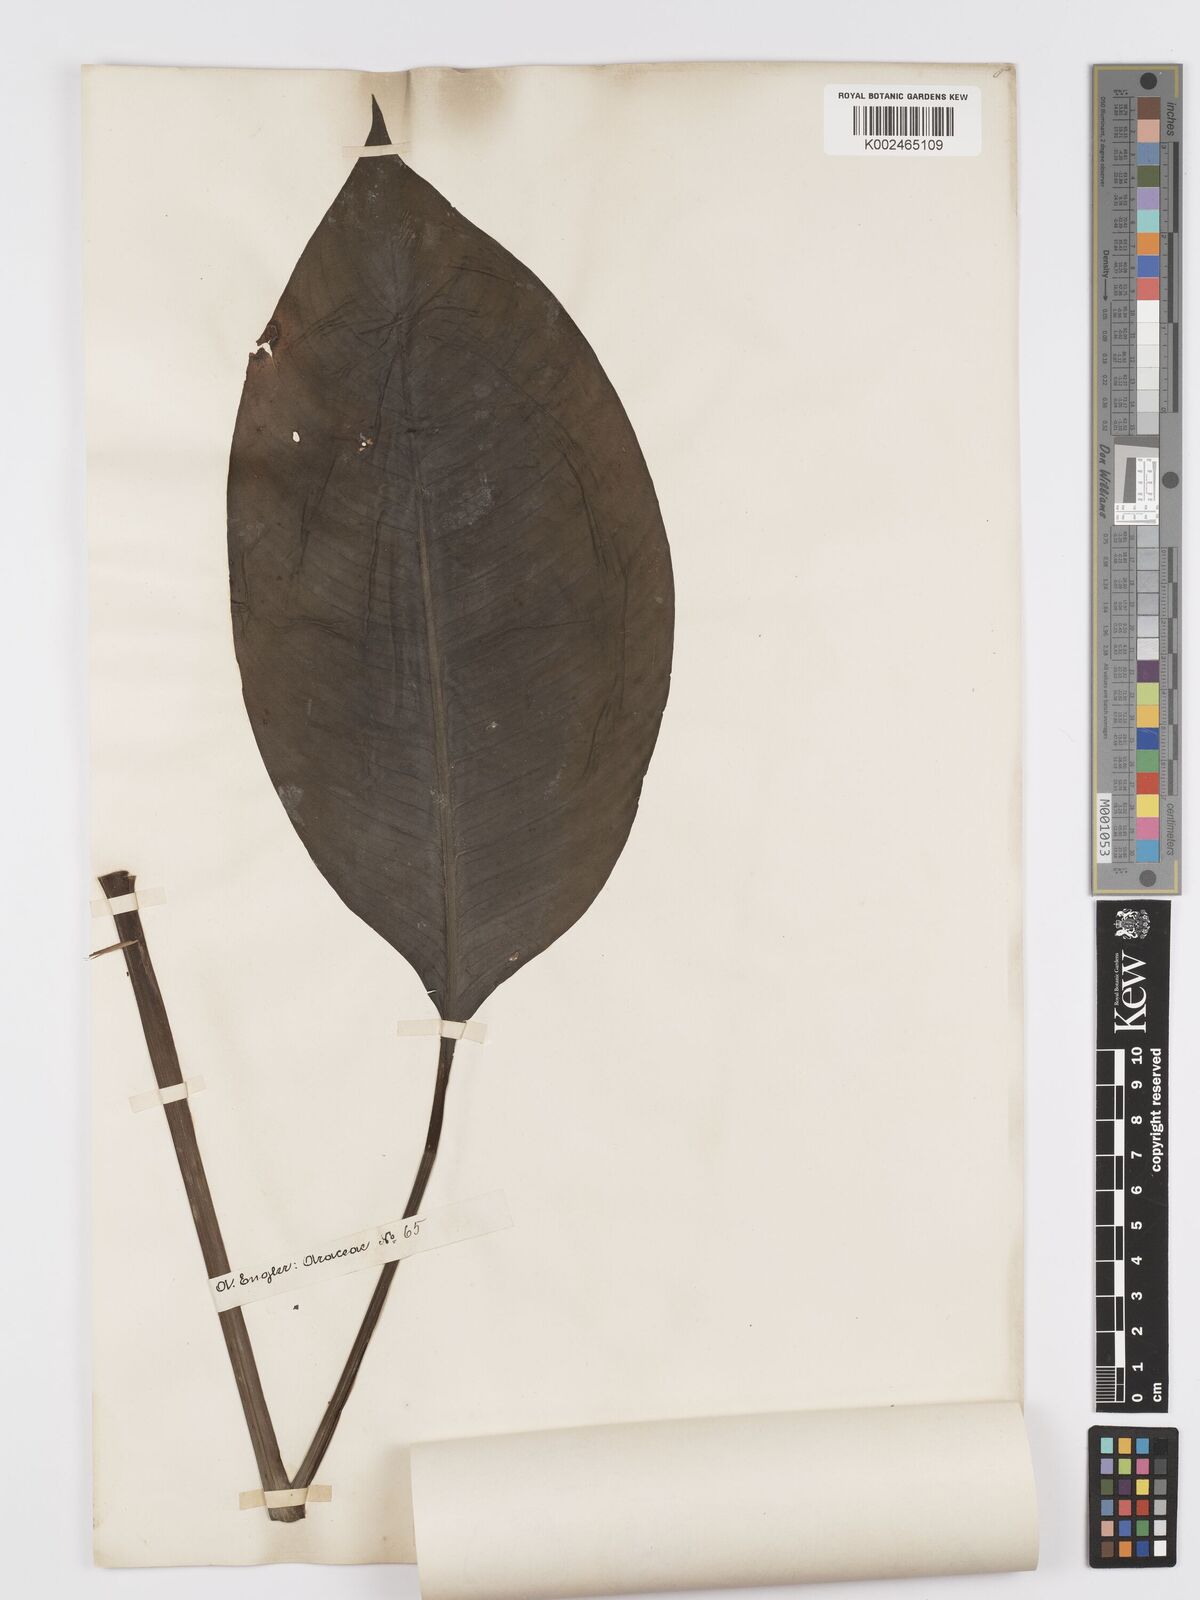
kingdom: Plantae
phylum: Tracheophyta
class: Liliopsida
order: Alismatales
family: Araceae
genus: Spathiphyllum
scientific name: Spathiphyllum blandum
